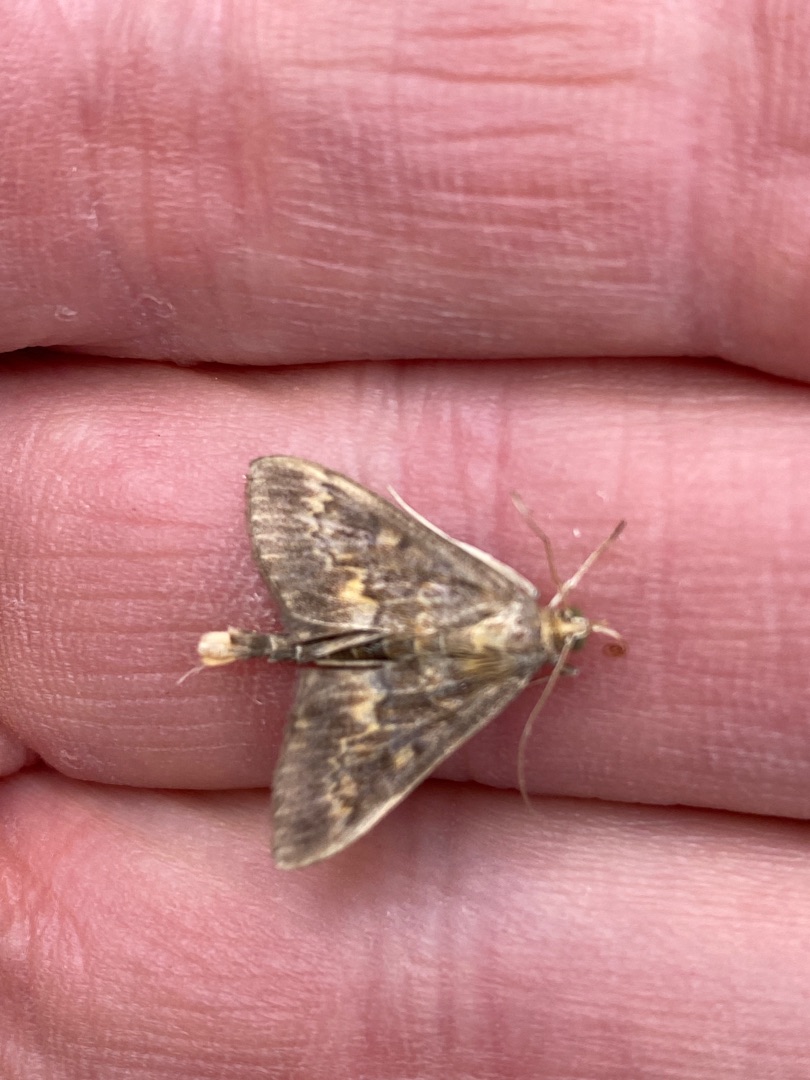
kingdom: Animalia
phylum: Arthropoda
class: Insecta
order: Lepidoptera
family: Crambidae
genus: Ostrinia
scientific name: Ostrinia nubilalis
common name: Majshalvmøl
